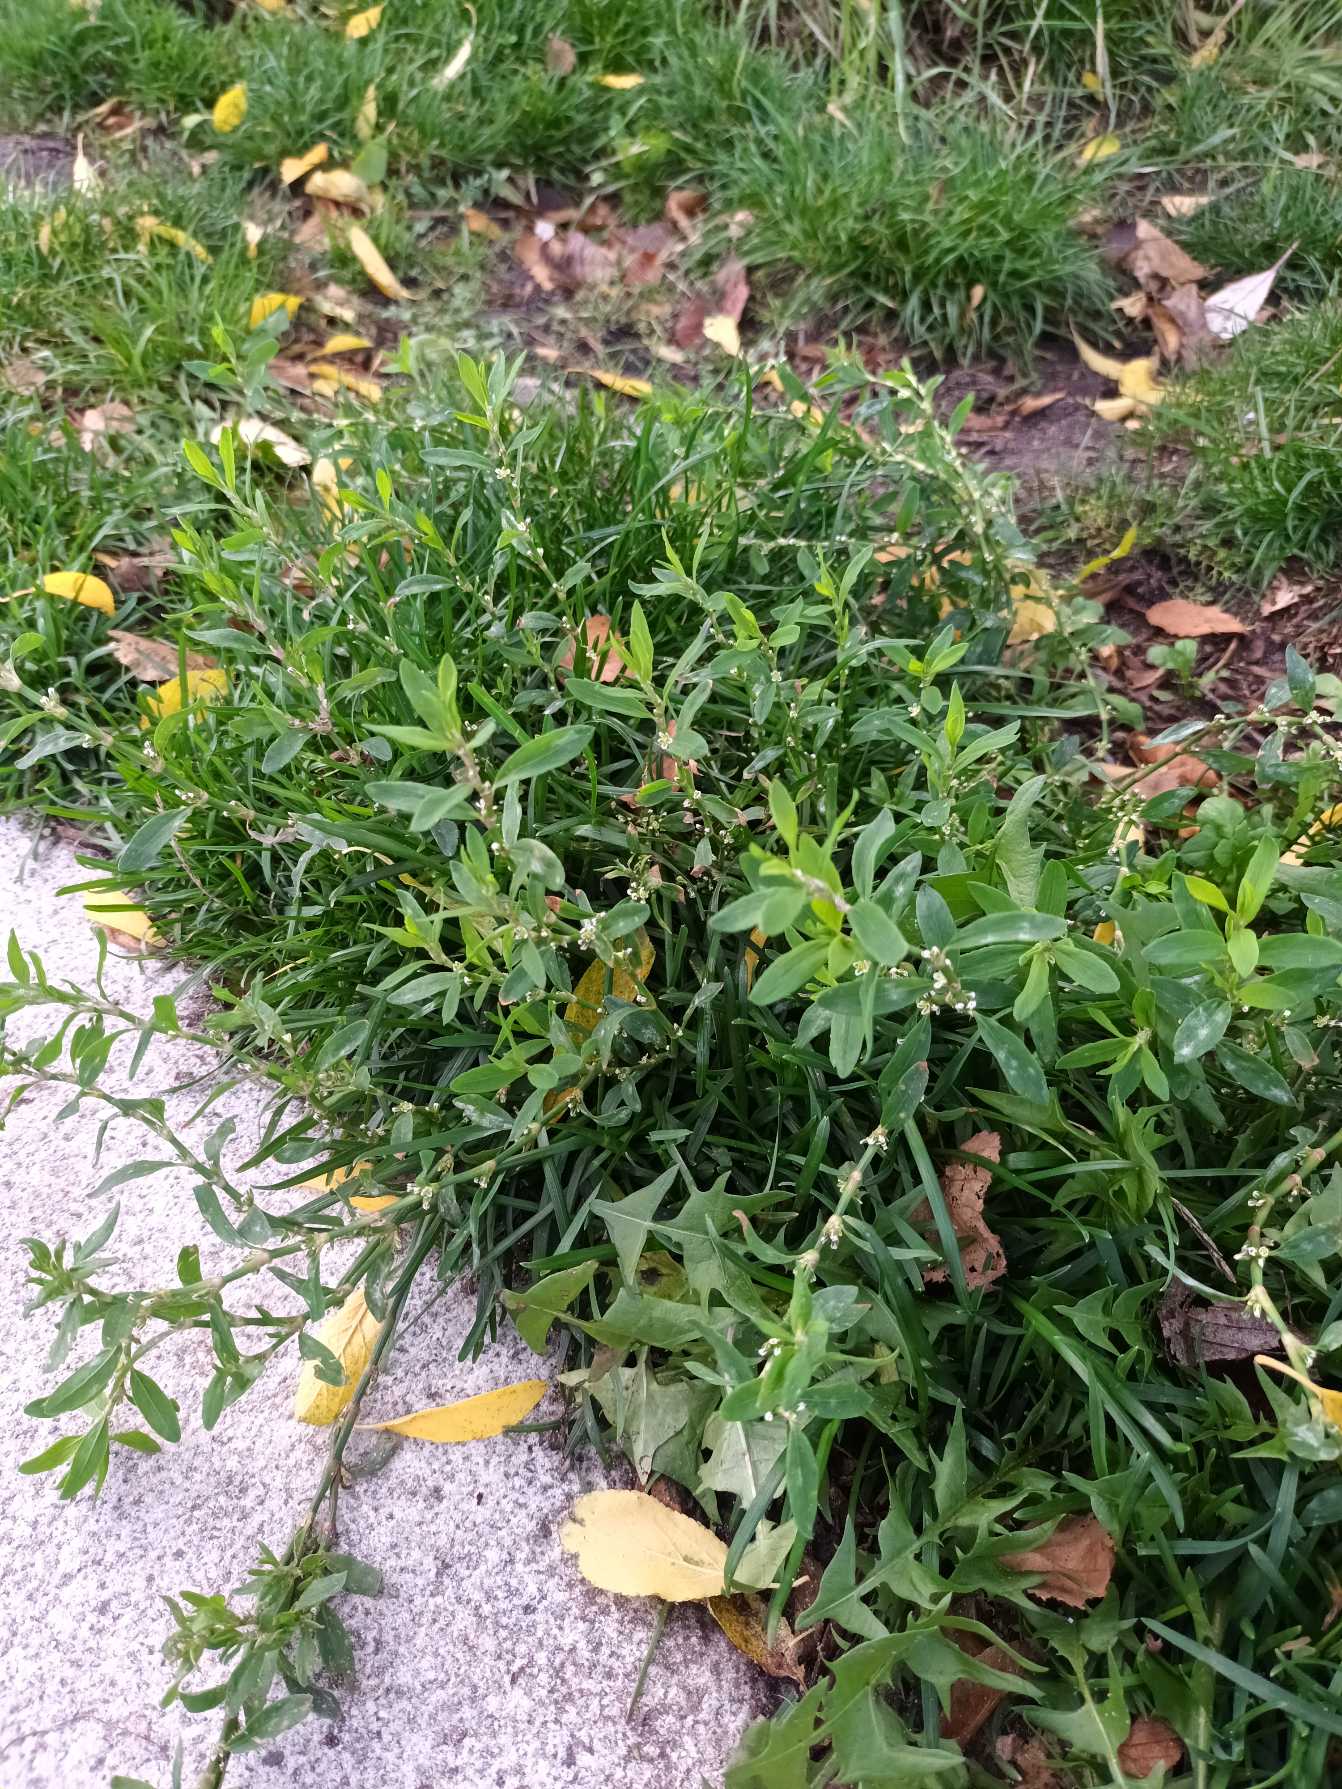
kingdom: Plantae
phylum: Tracheophyta
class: Magnoliopsida
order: Caryophyllales
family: Polygonaceae
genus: Polygonum
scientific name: Polygonum arenastrum
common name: Liggende vej-pileurt
